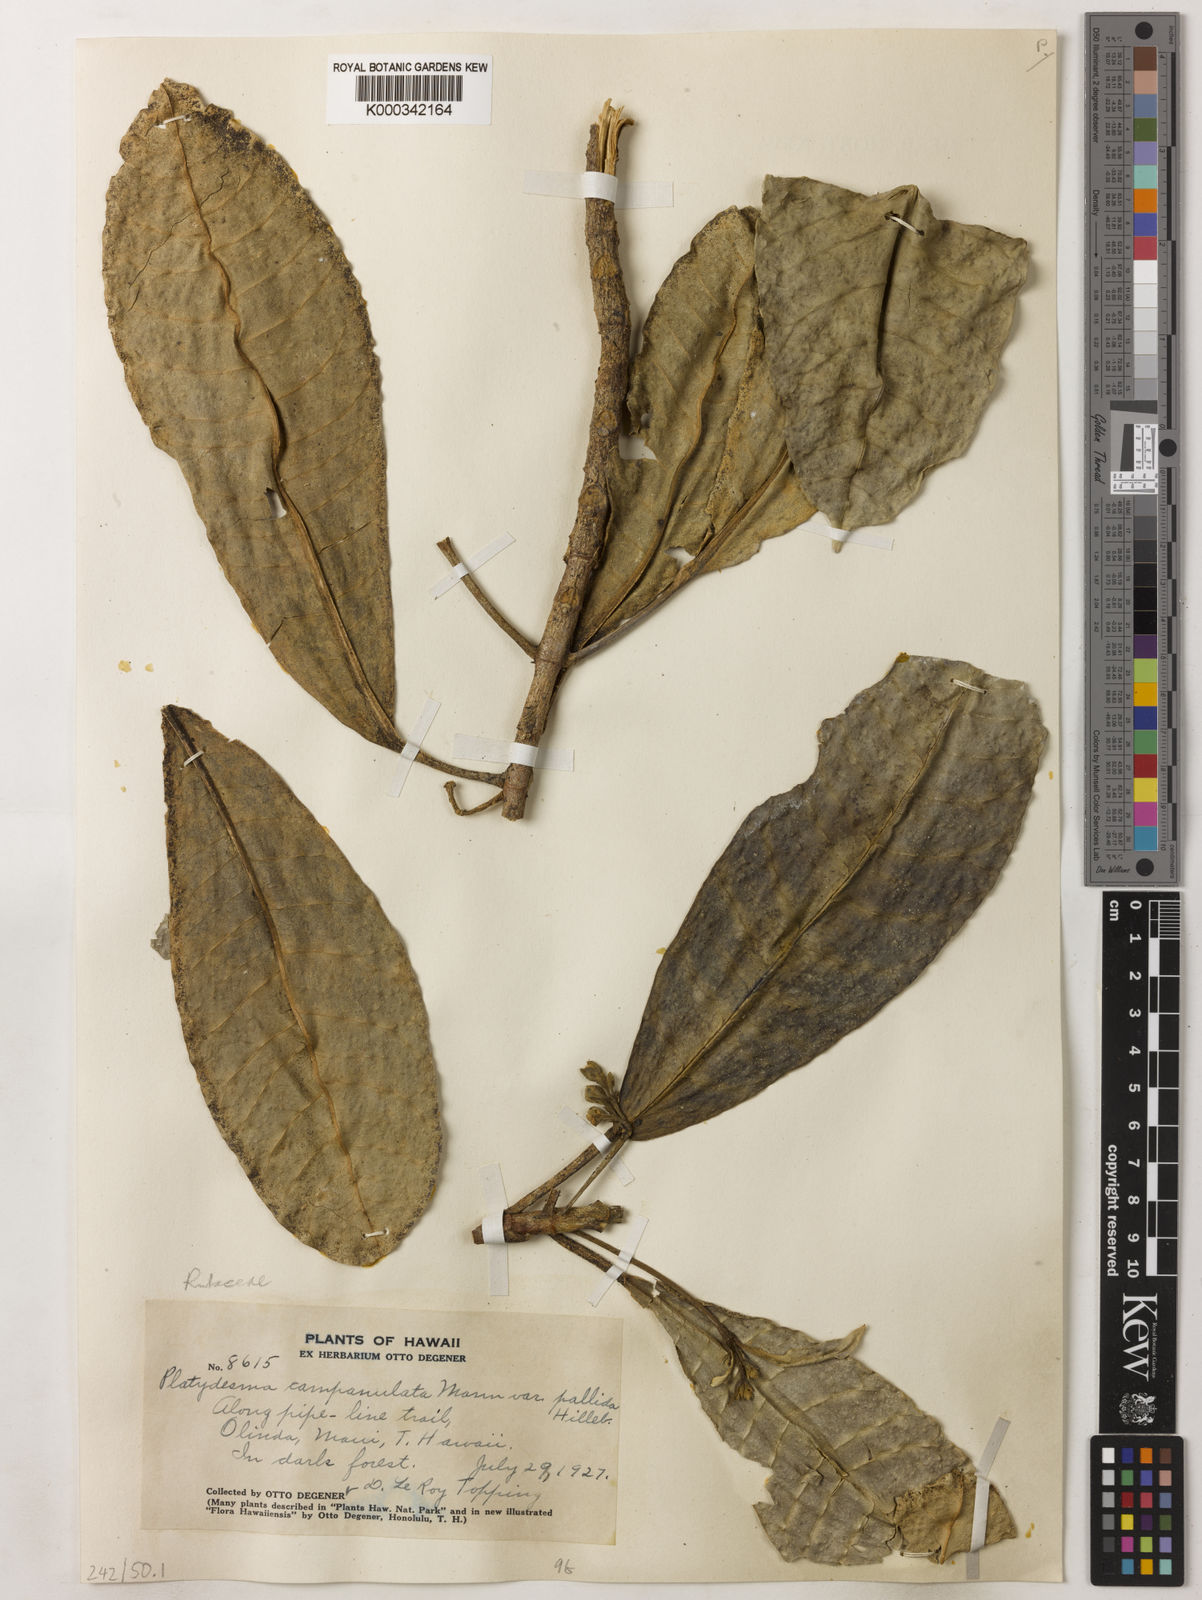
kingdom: Plantae
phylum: Tracheophyta
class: Magnoliopsida
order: Sapindales
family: Rutaceae
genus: Melicope
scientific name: Melicope spathulata
